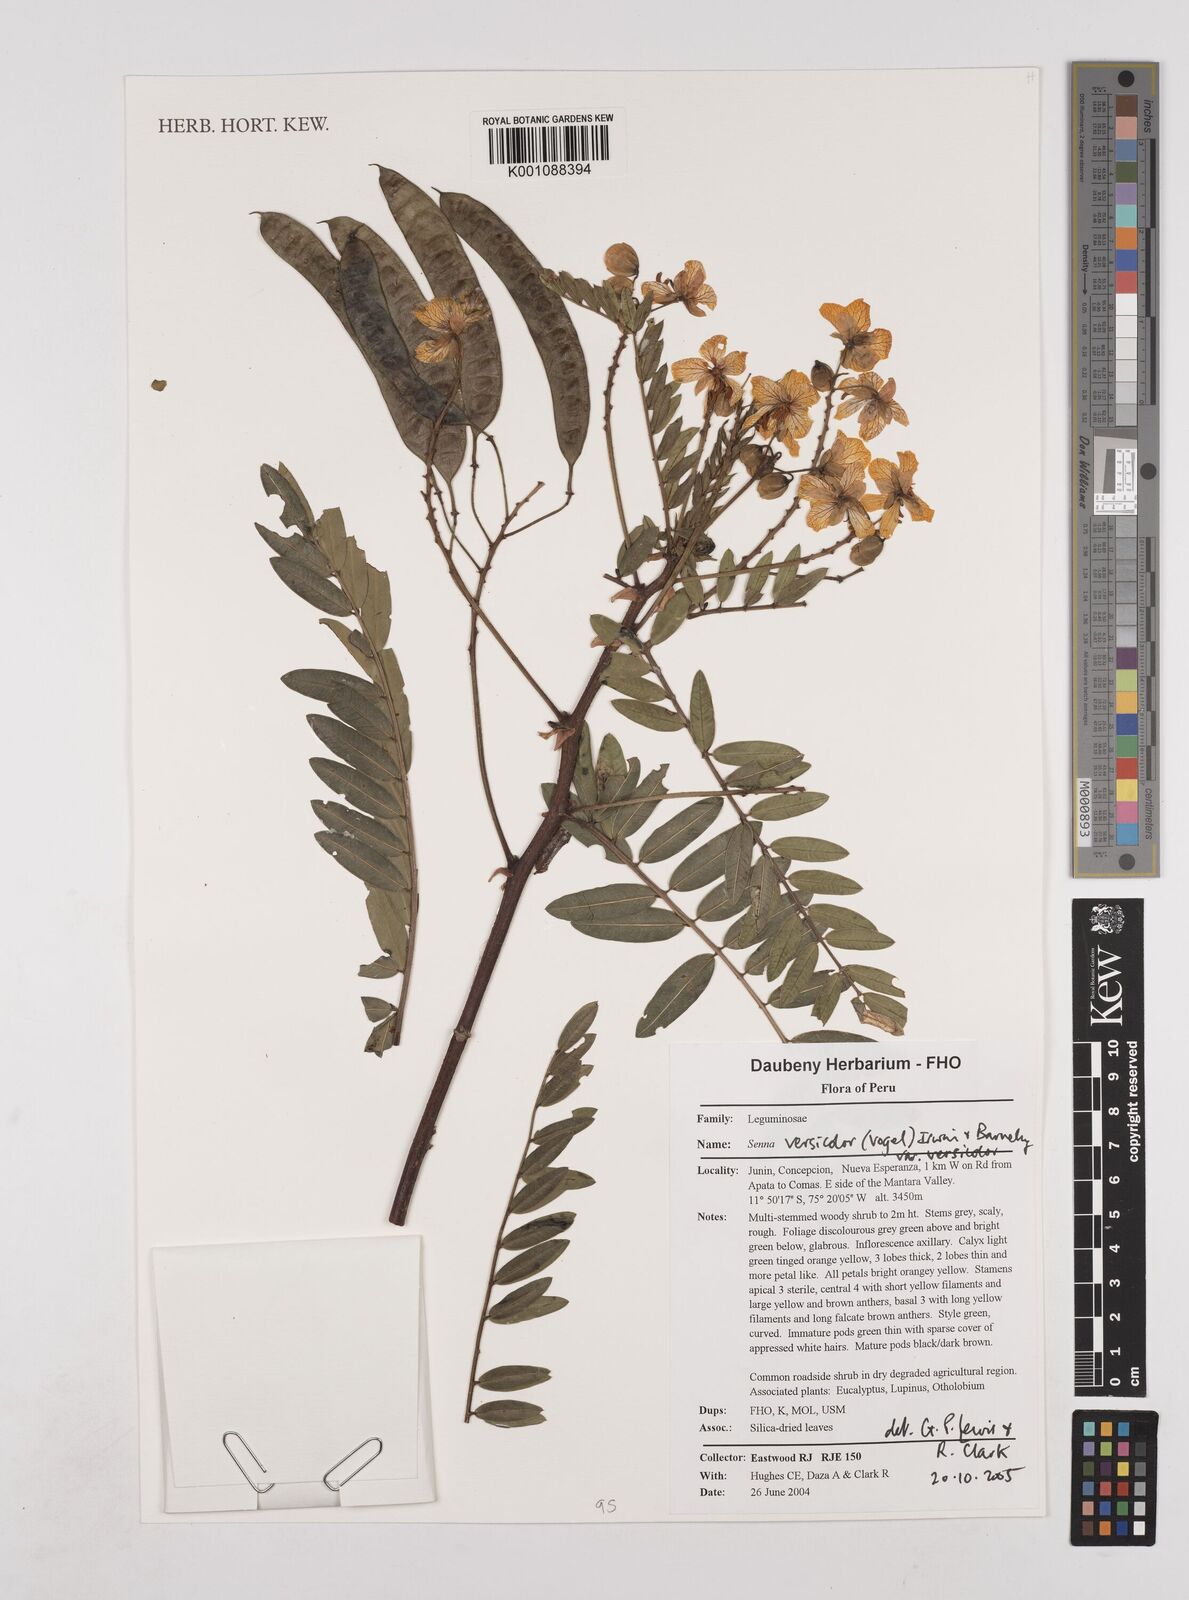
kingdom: Plantae
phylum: Tracheophyta
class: Magnoliopsida
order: Fabales
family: Fabaceae
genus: Senna
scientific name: Senna versicolor
